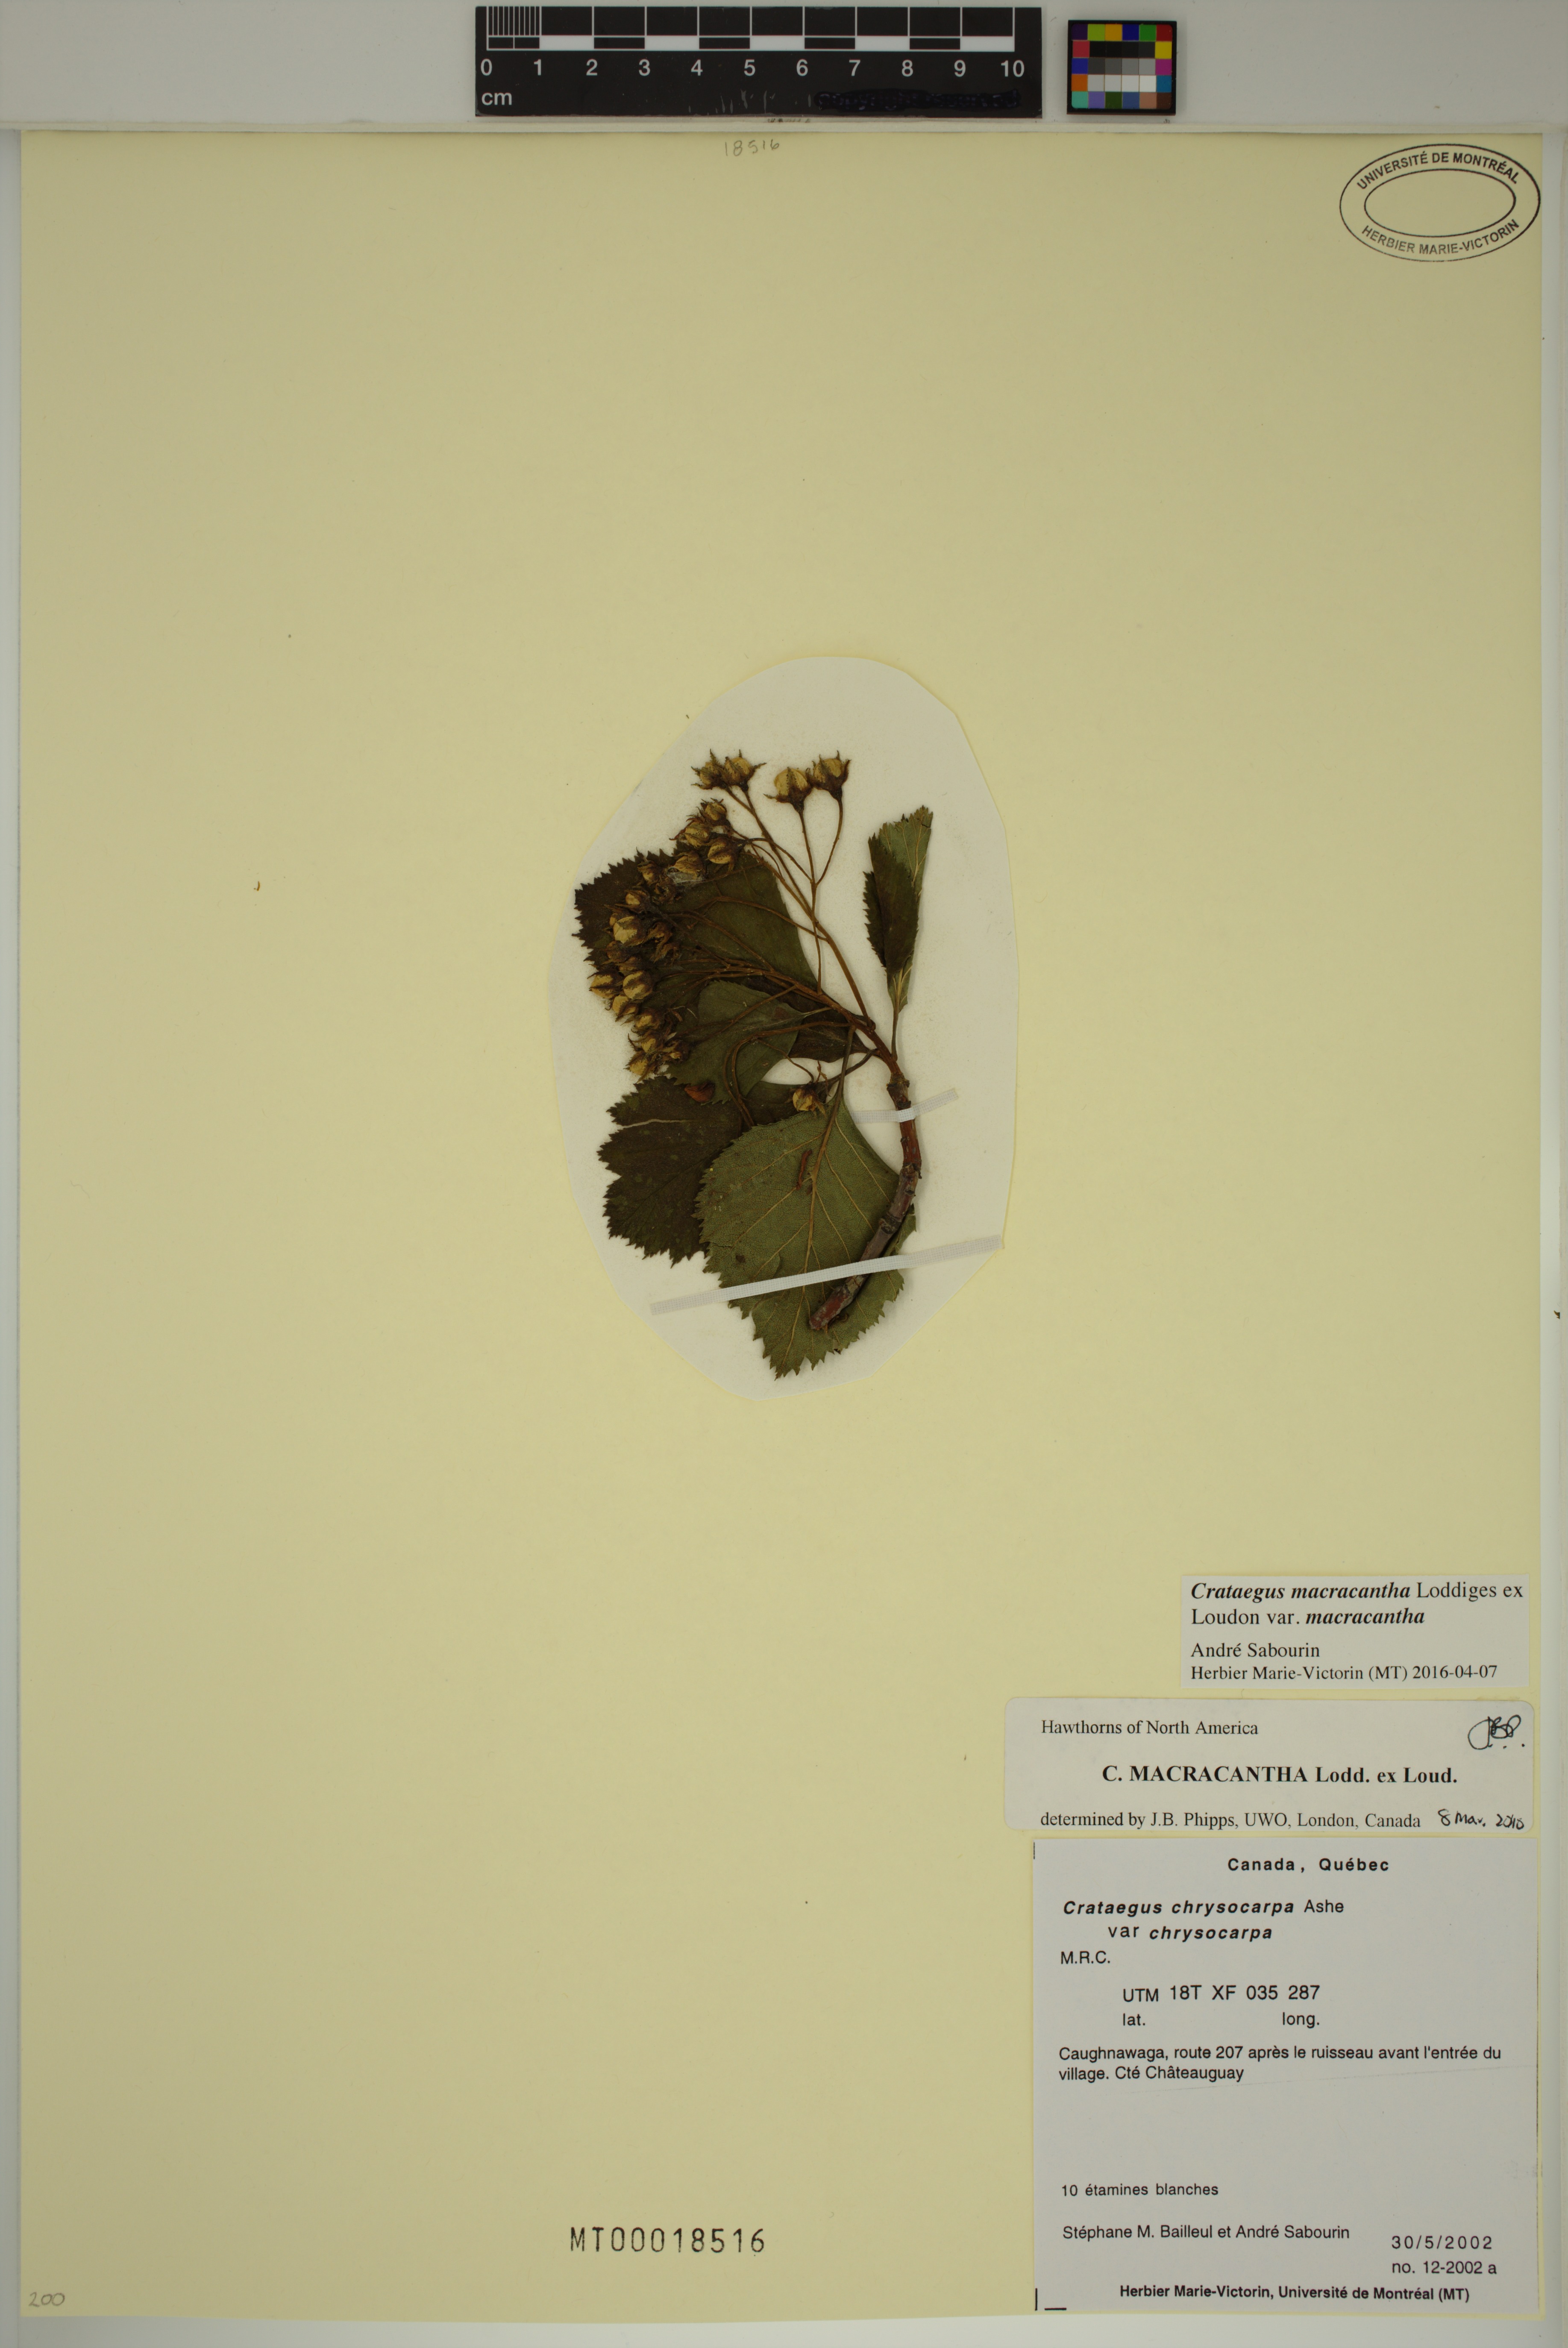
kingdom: Plantae
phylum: Tracheophyta
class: Magnoliopsida
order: Rosales
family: Rosaceae
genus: Crataegus
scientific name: Crataegus macracantha
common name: Large-thorn hawthorn
